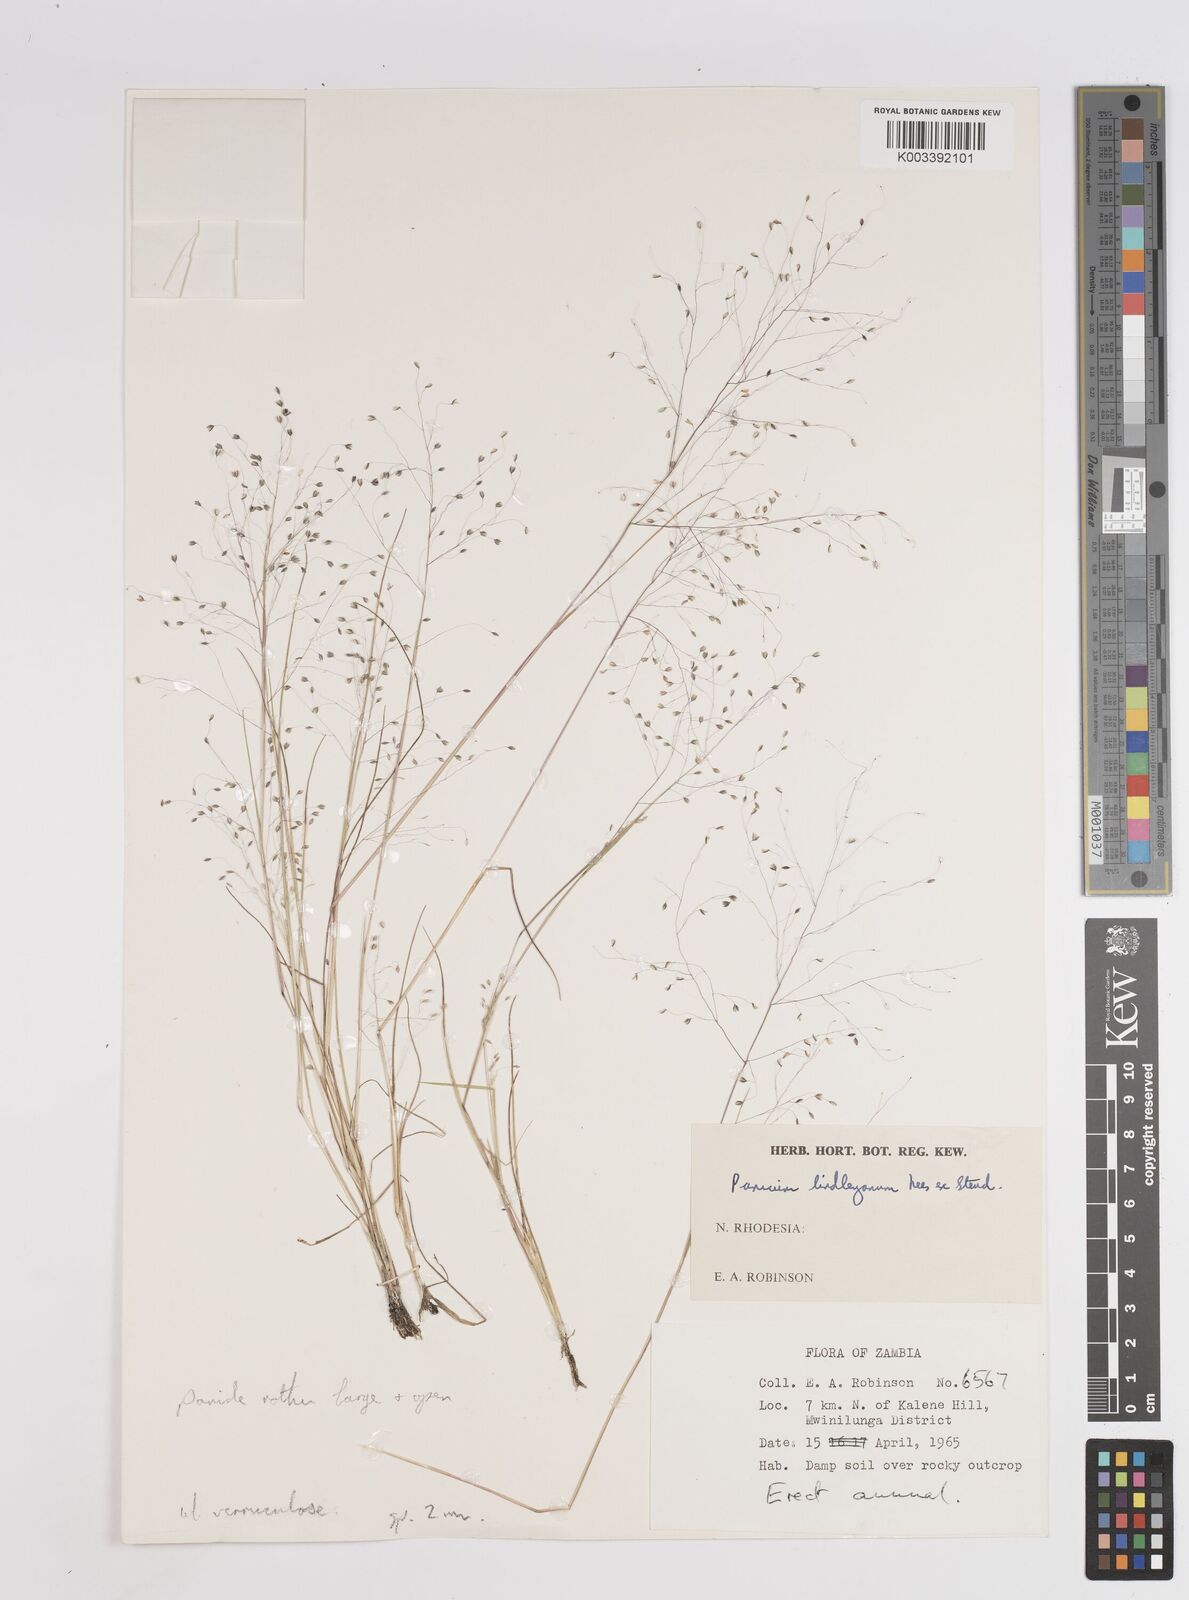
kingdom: Plantae
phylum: Tracheophyta
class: Liliopsida
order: Poales
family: Poaceae
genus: Trichanthecium
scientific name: Trichanthecium tenellum
